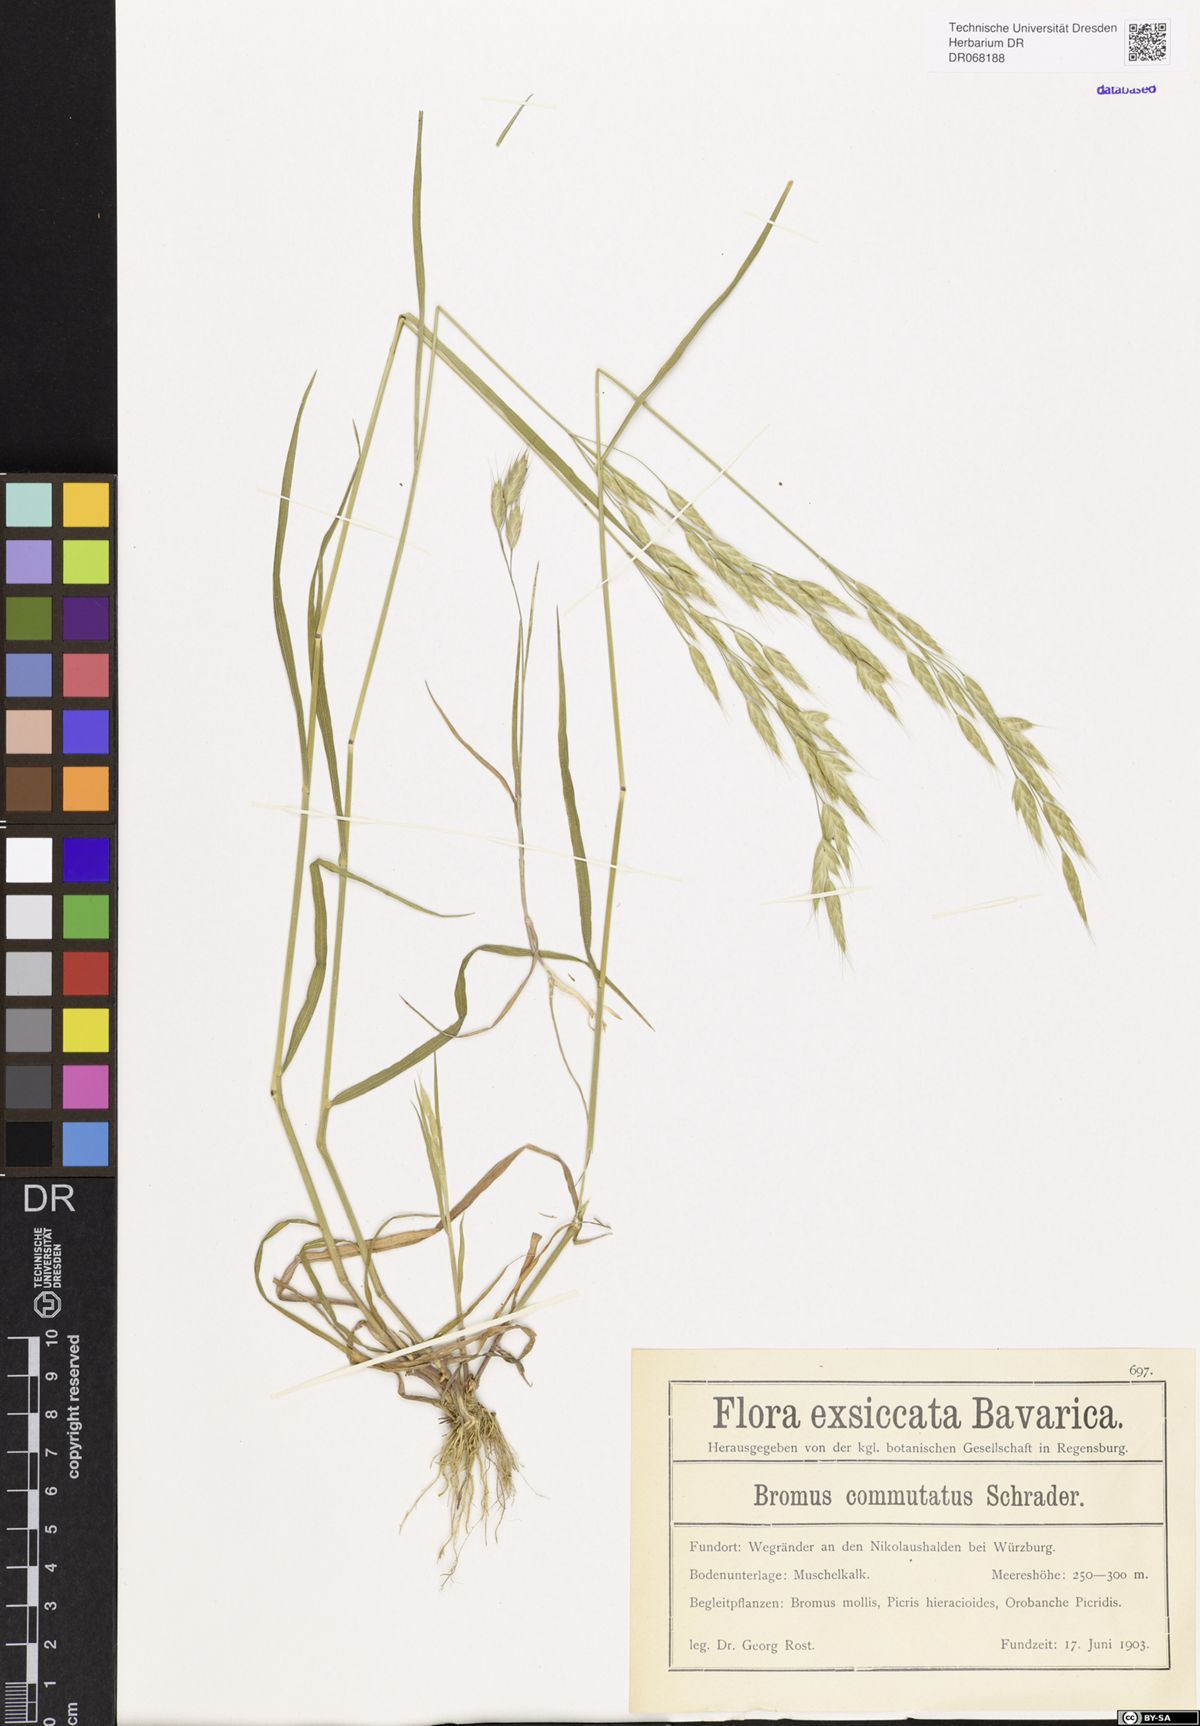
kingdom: Plantae
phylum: Tracheophyta
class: Liliopsida
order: Poales
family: Poaceae
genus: Bromus
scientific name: Bromus commutatus
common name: Meadow brome
